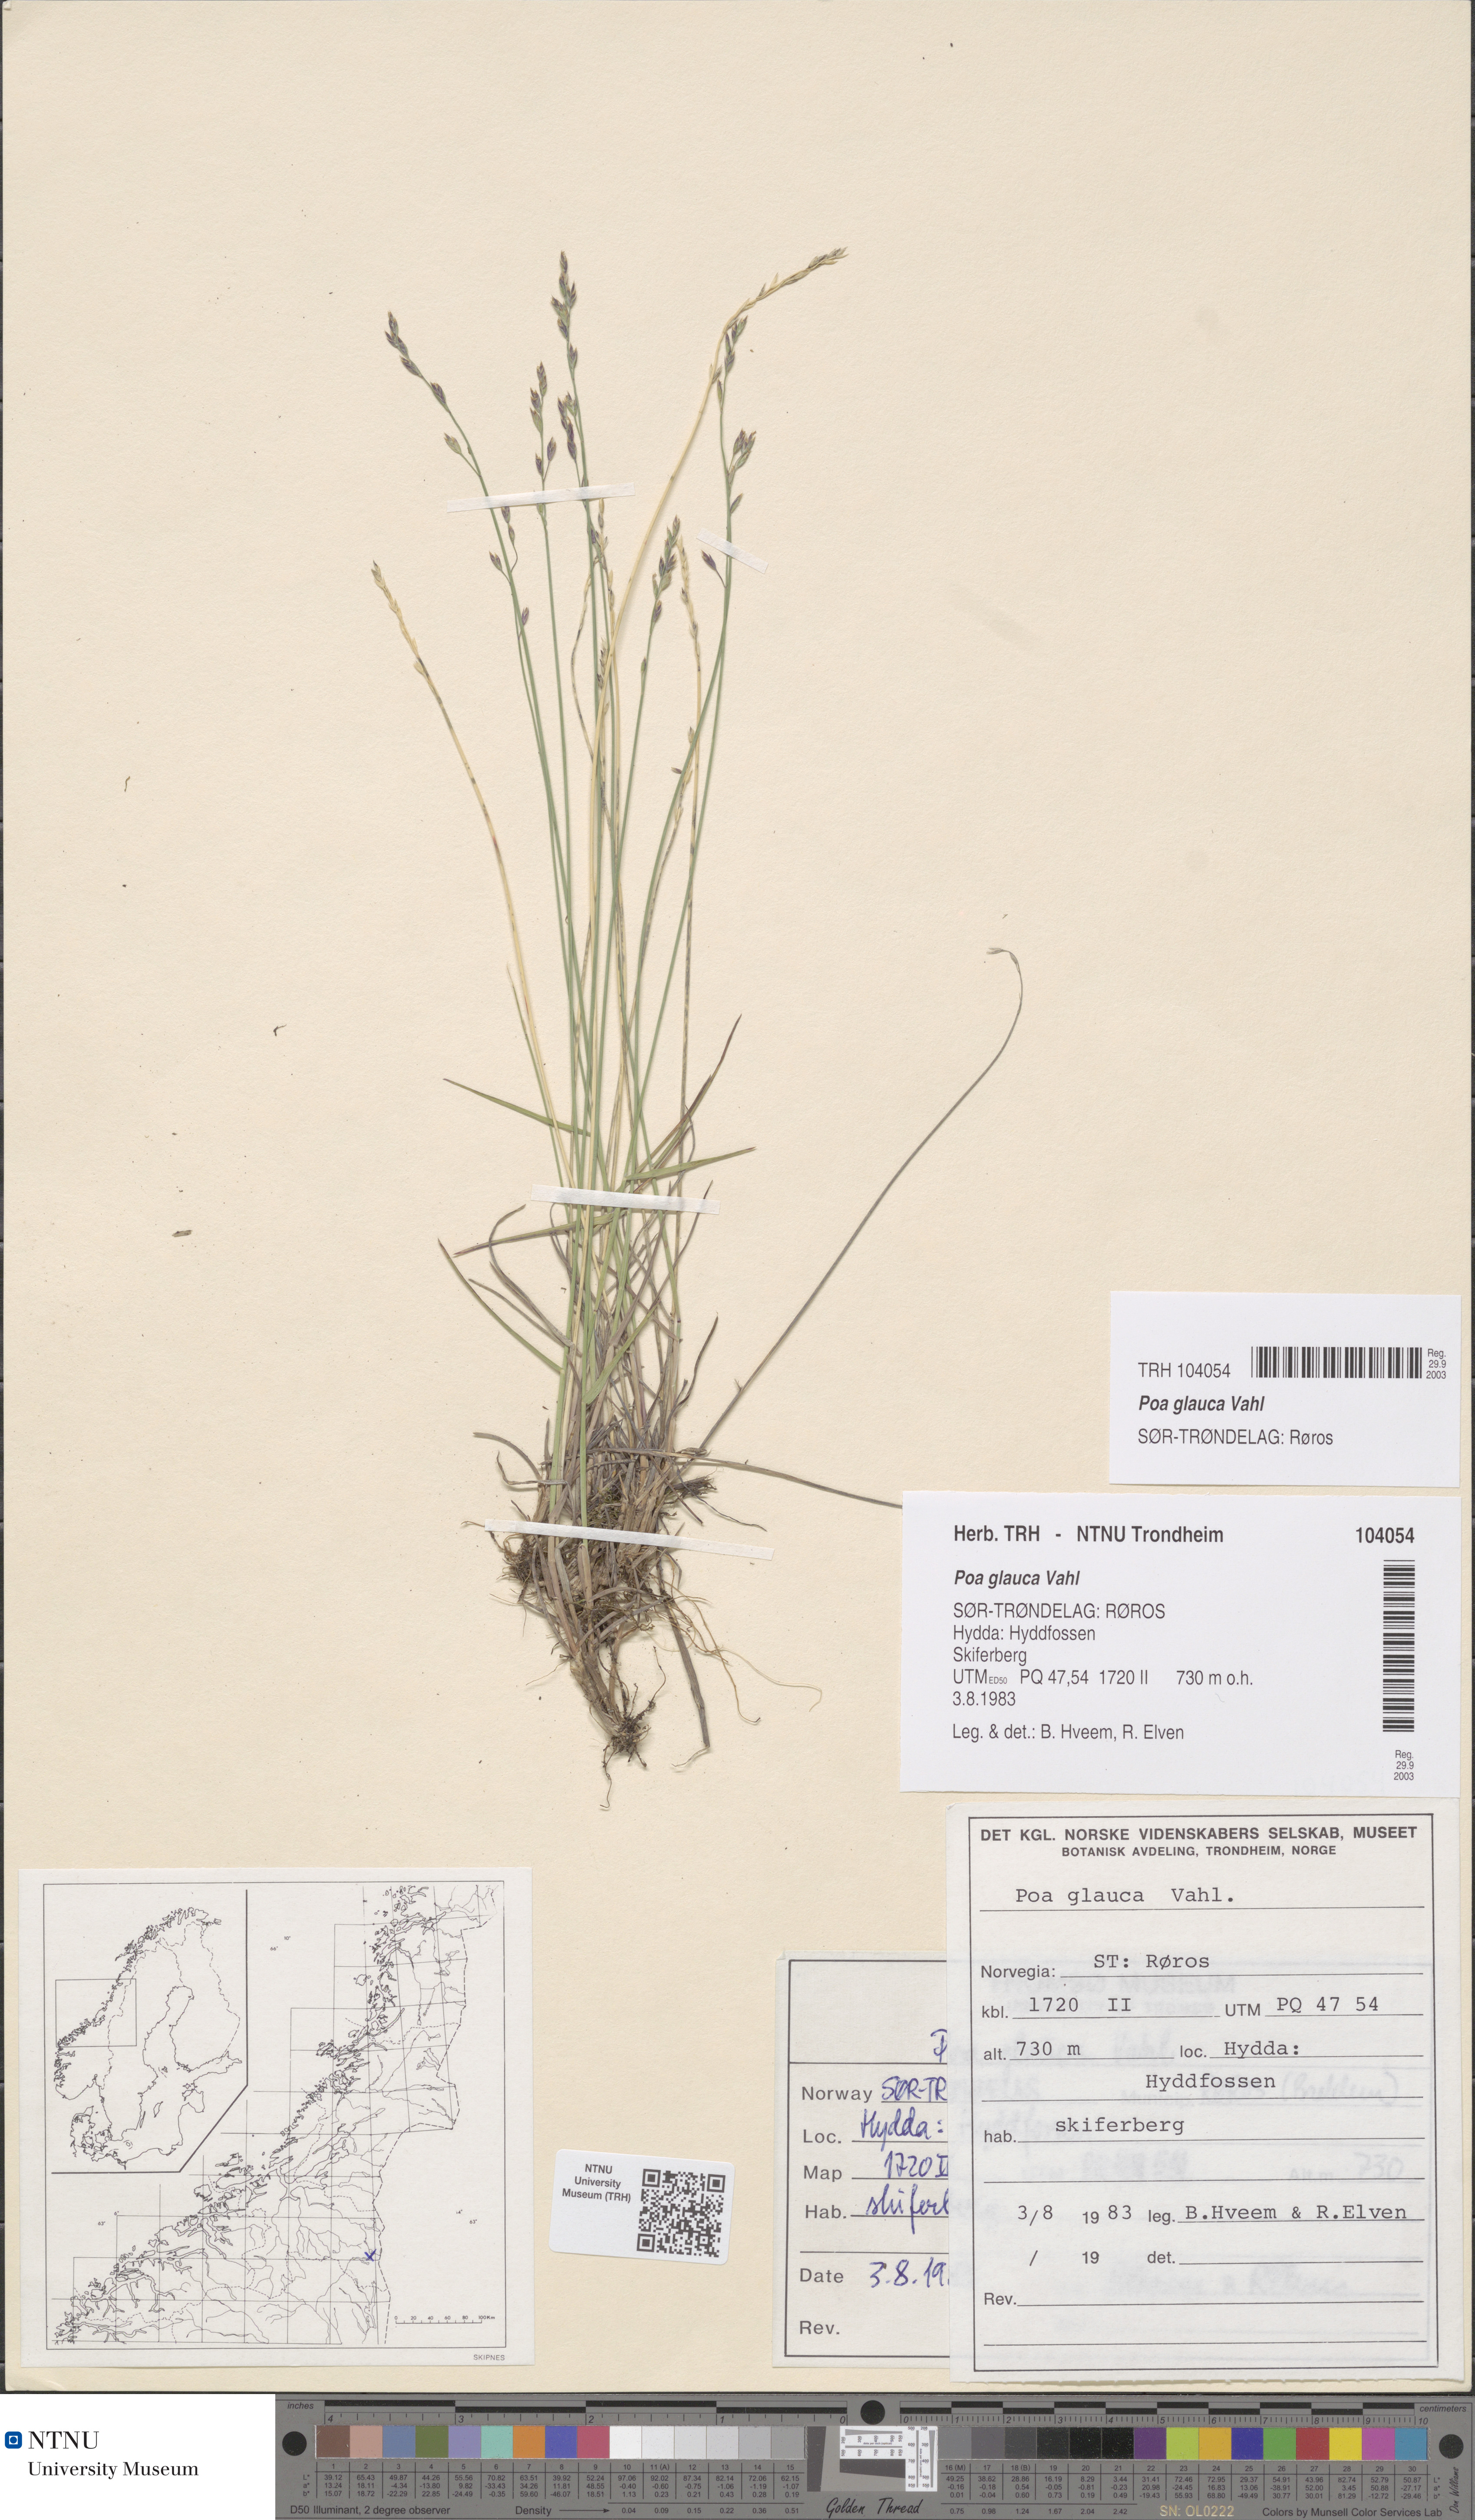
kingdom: Plantae
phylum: Tracheophyta
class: Liliopsida
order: Poales
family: Poaceae
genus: Poa
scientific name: Poa glauca
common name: Glaucous bluegrass
